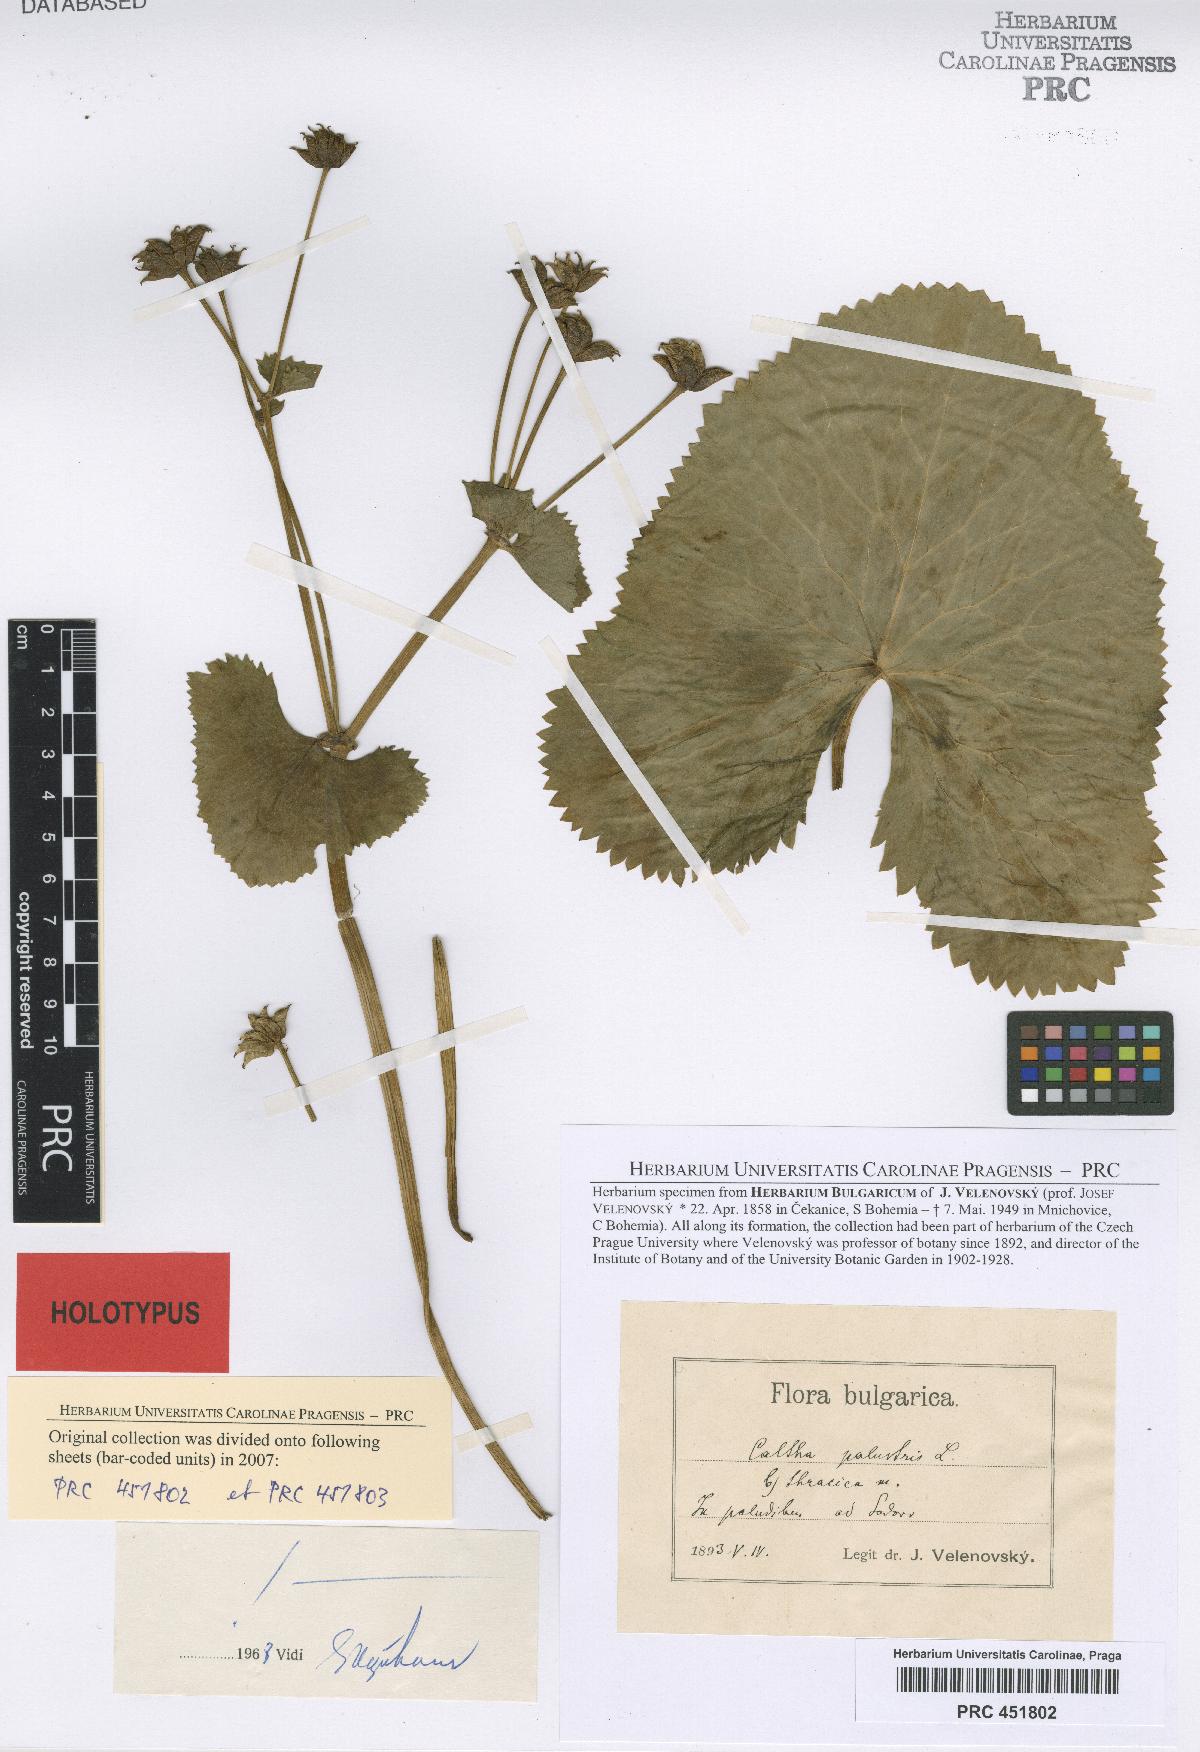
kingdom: Plantae
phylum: Tracheophyta
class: Magnoliopsida
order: Ranunculales
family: Ranunculaceae
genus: Caltha
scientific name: Caltha palustris
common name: Marsh marigold
